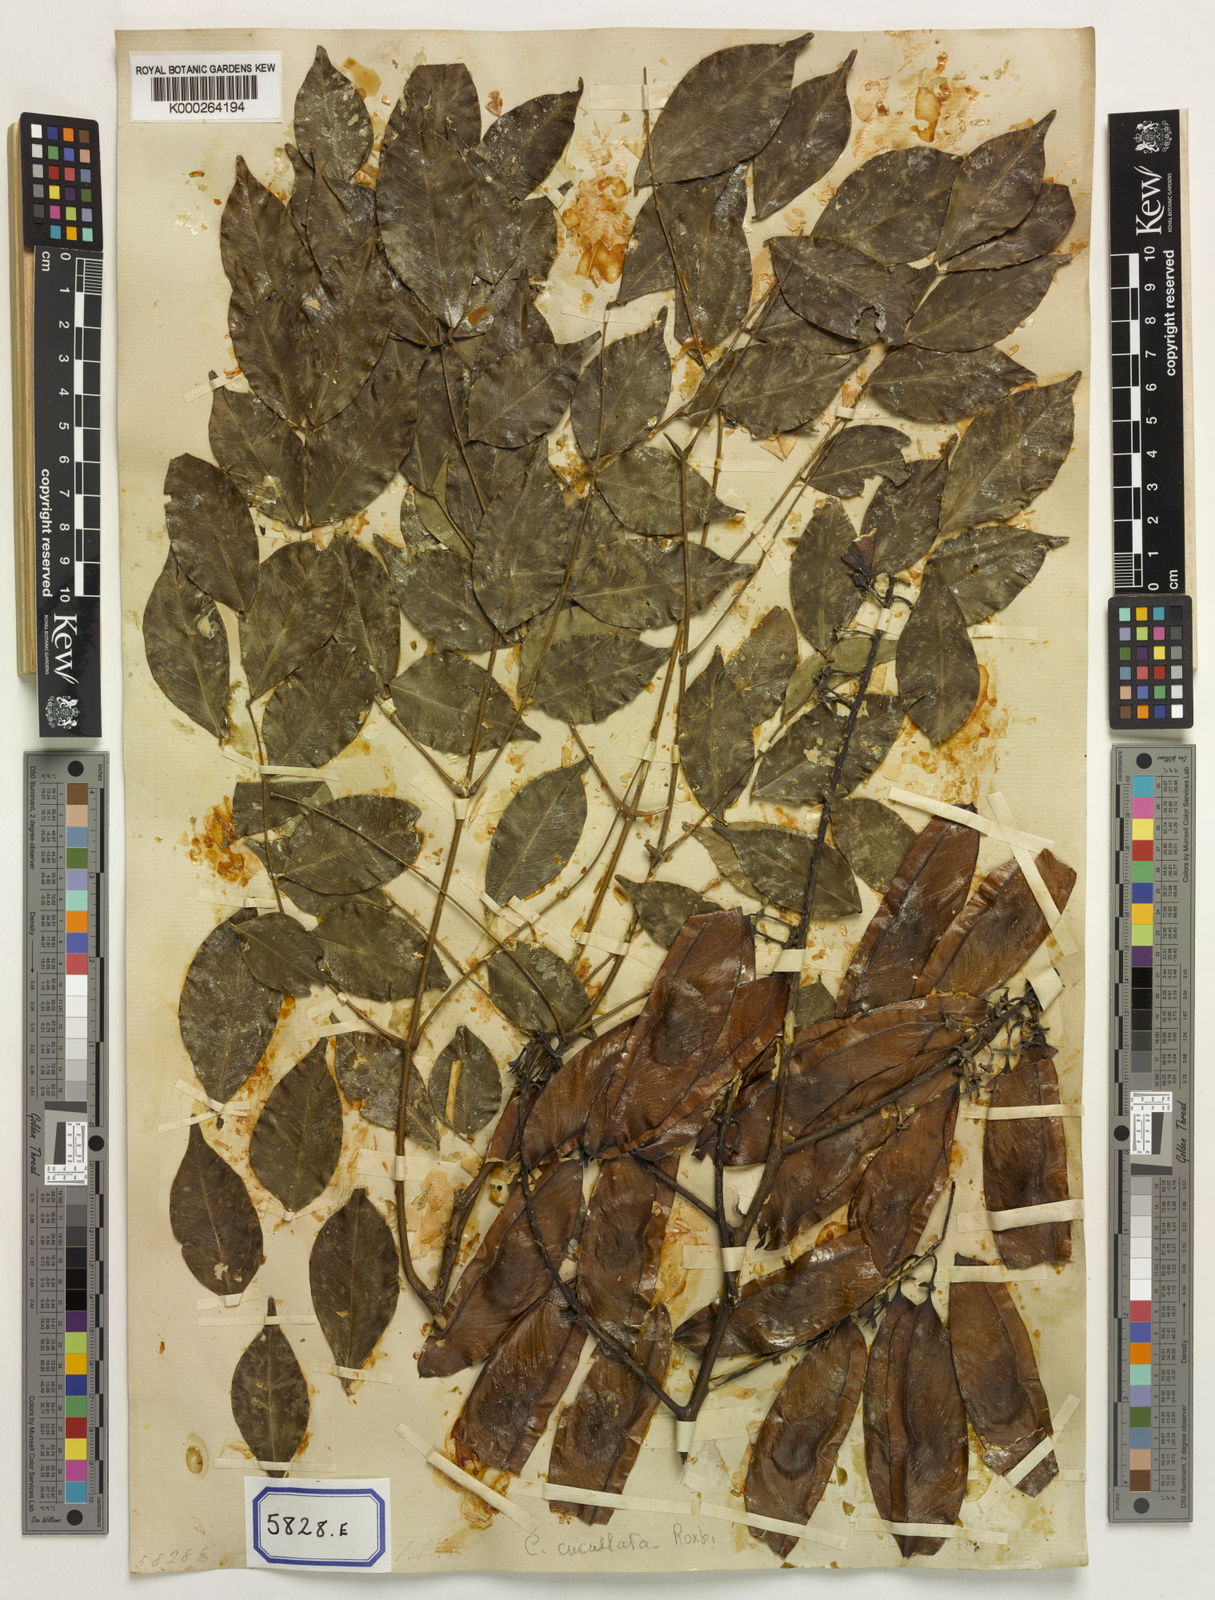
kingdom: Plantae
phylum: Tracheophyta
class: Magnoliopsida
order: Fabales
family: Fabaceae
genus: Mezoneuron
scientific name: Mezoneuron cucullatum
